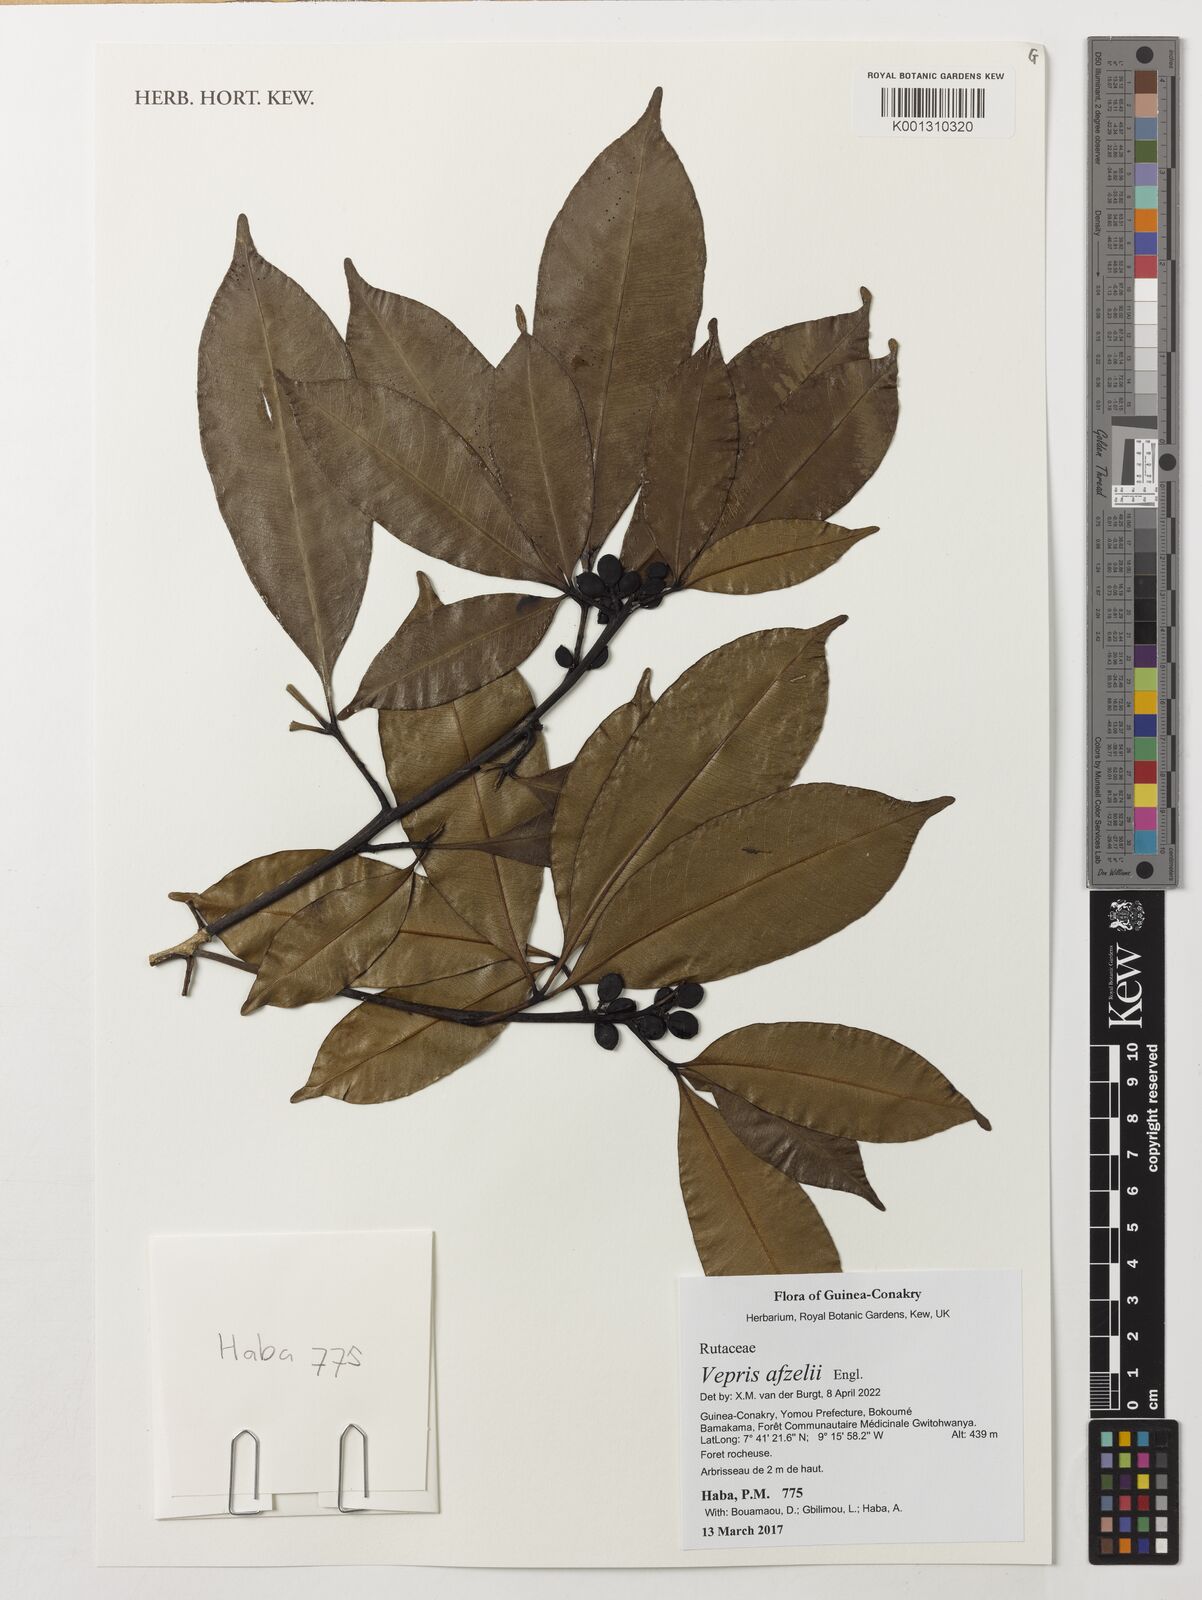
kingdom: Plantae
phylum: Tracheophyta
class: Magnoliopsida
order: Sapindales
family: Rutaceae
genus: Vepris
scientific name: Vepris afzelii
